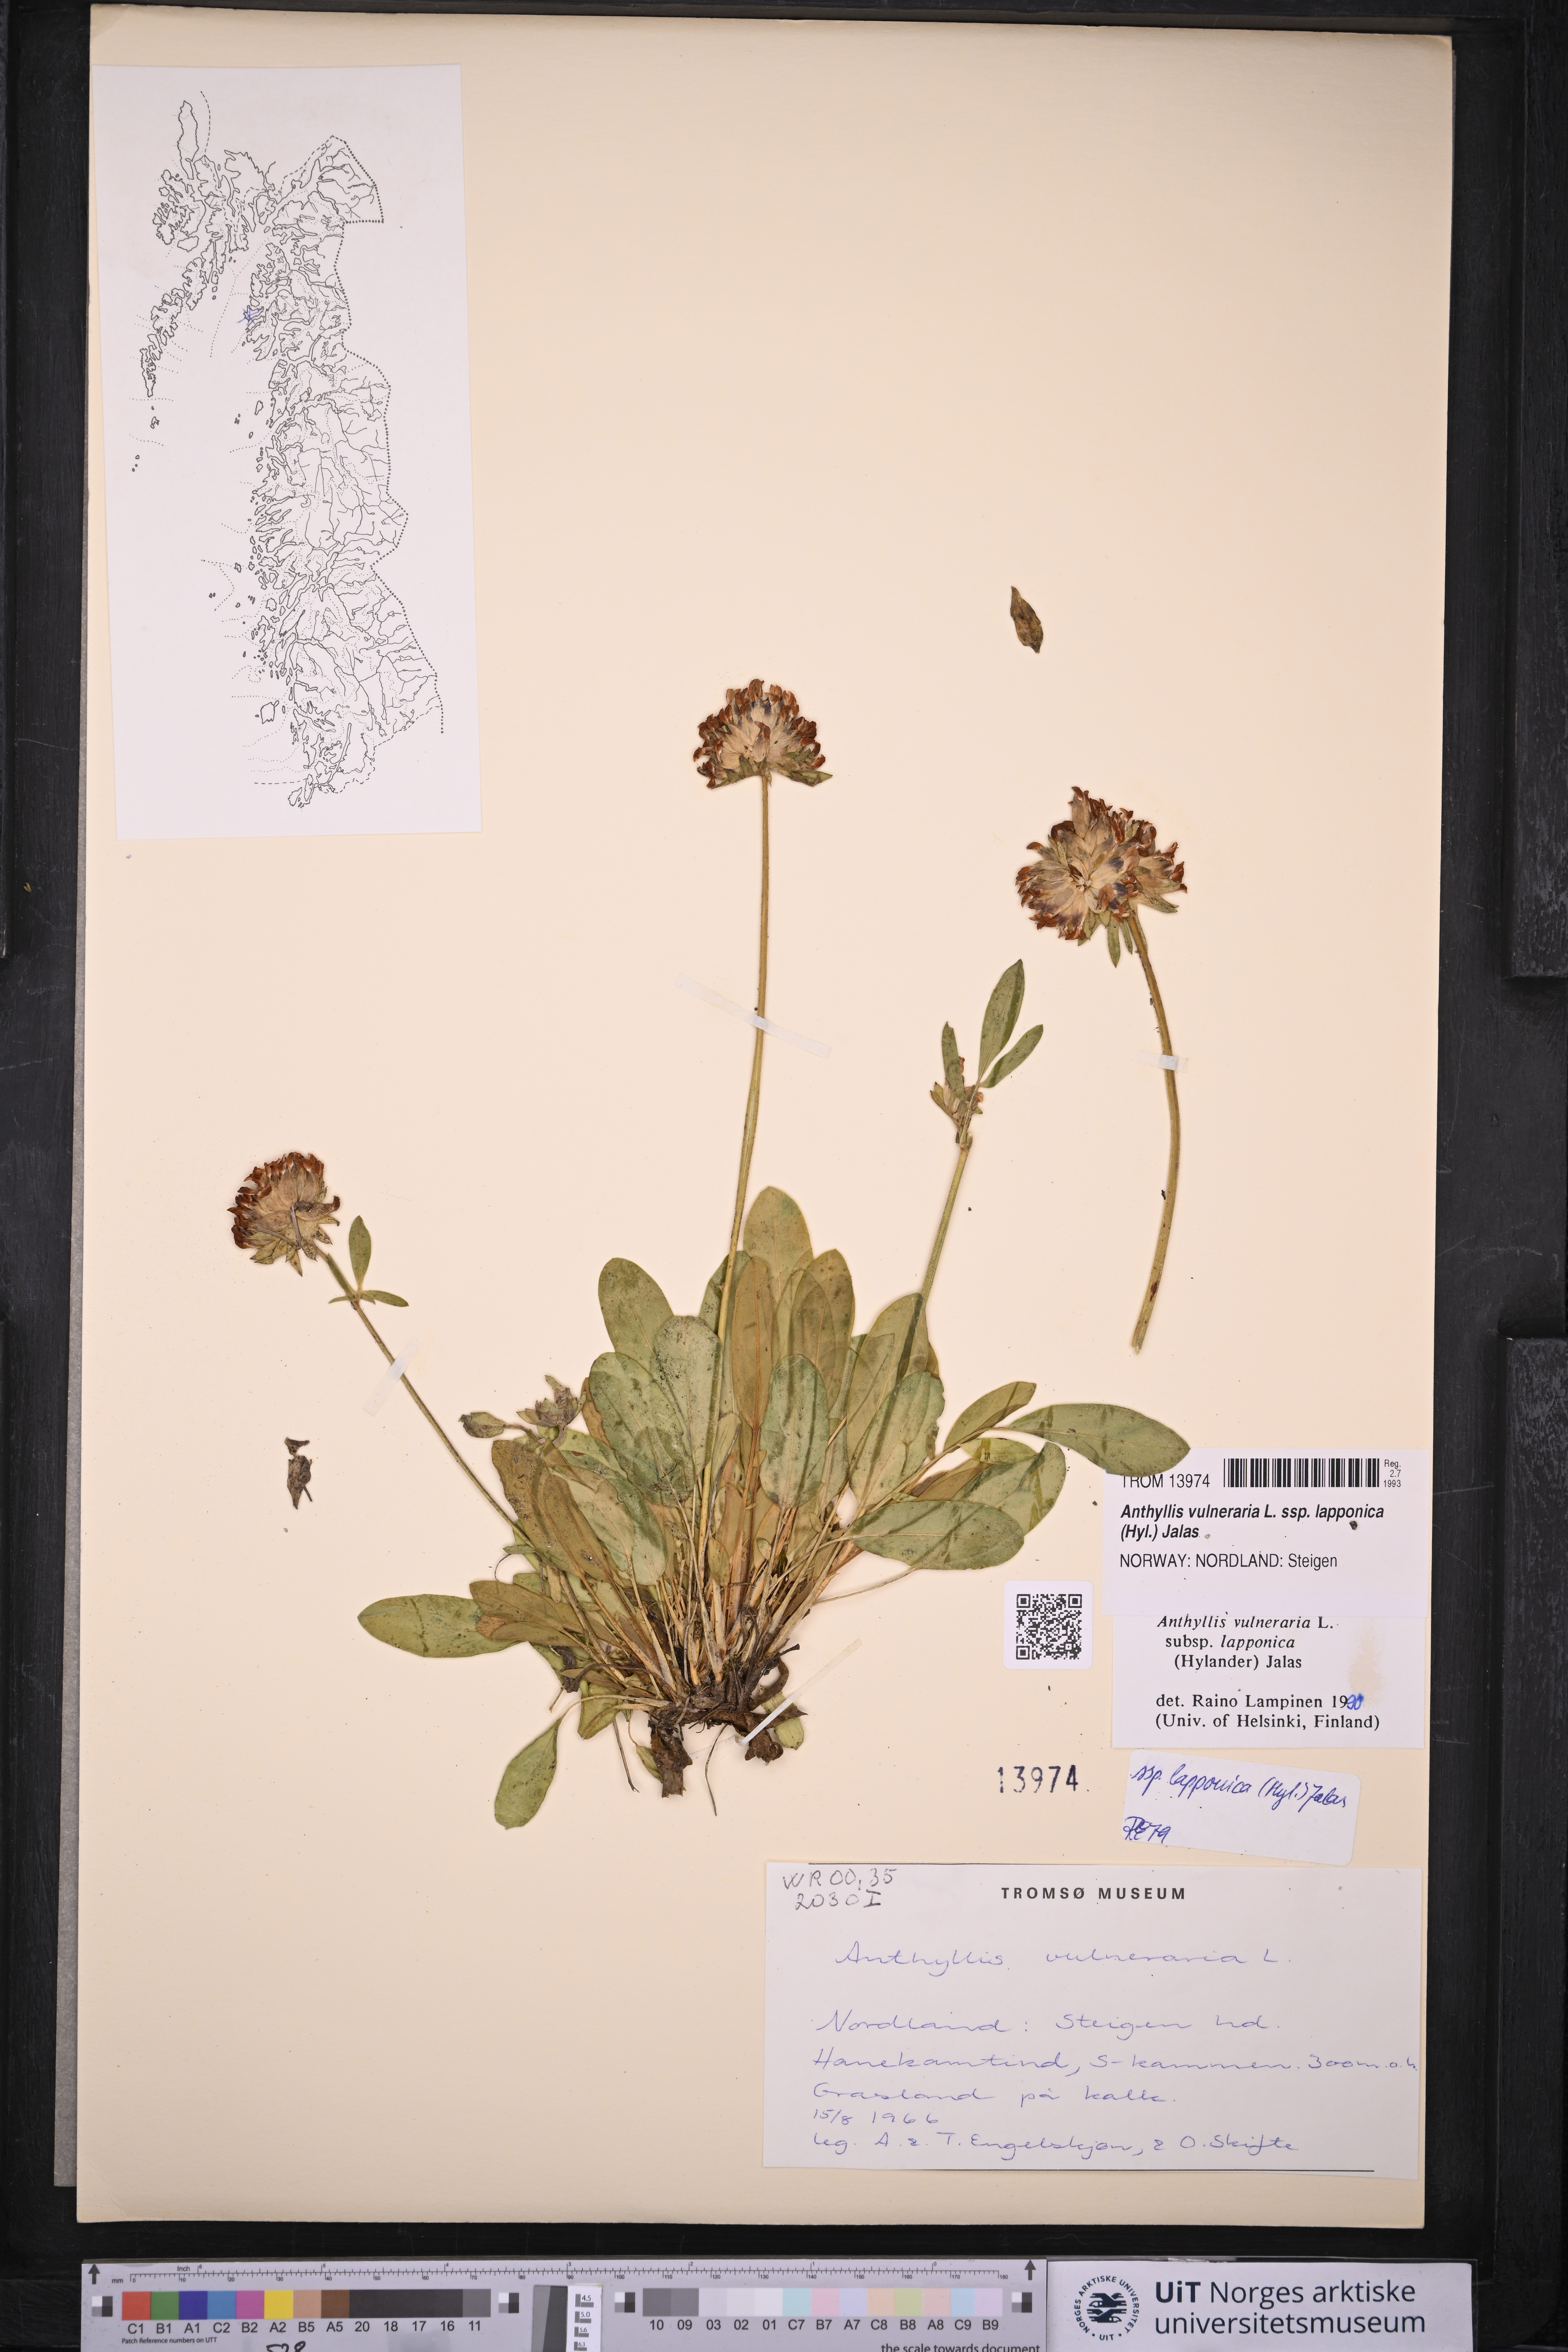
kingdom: Plantae
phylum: Tracheophyta
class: Magnoliopsida
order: Fabales
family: Fabaceae
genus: Anthyllis
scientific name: Anthyllis vulneraria
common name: Kidney vetch
